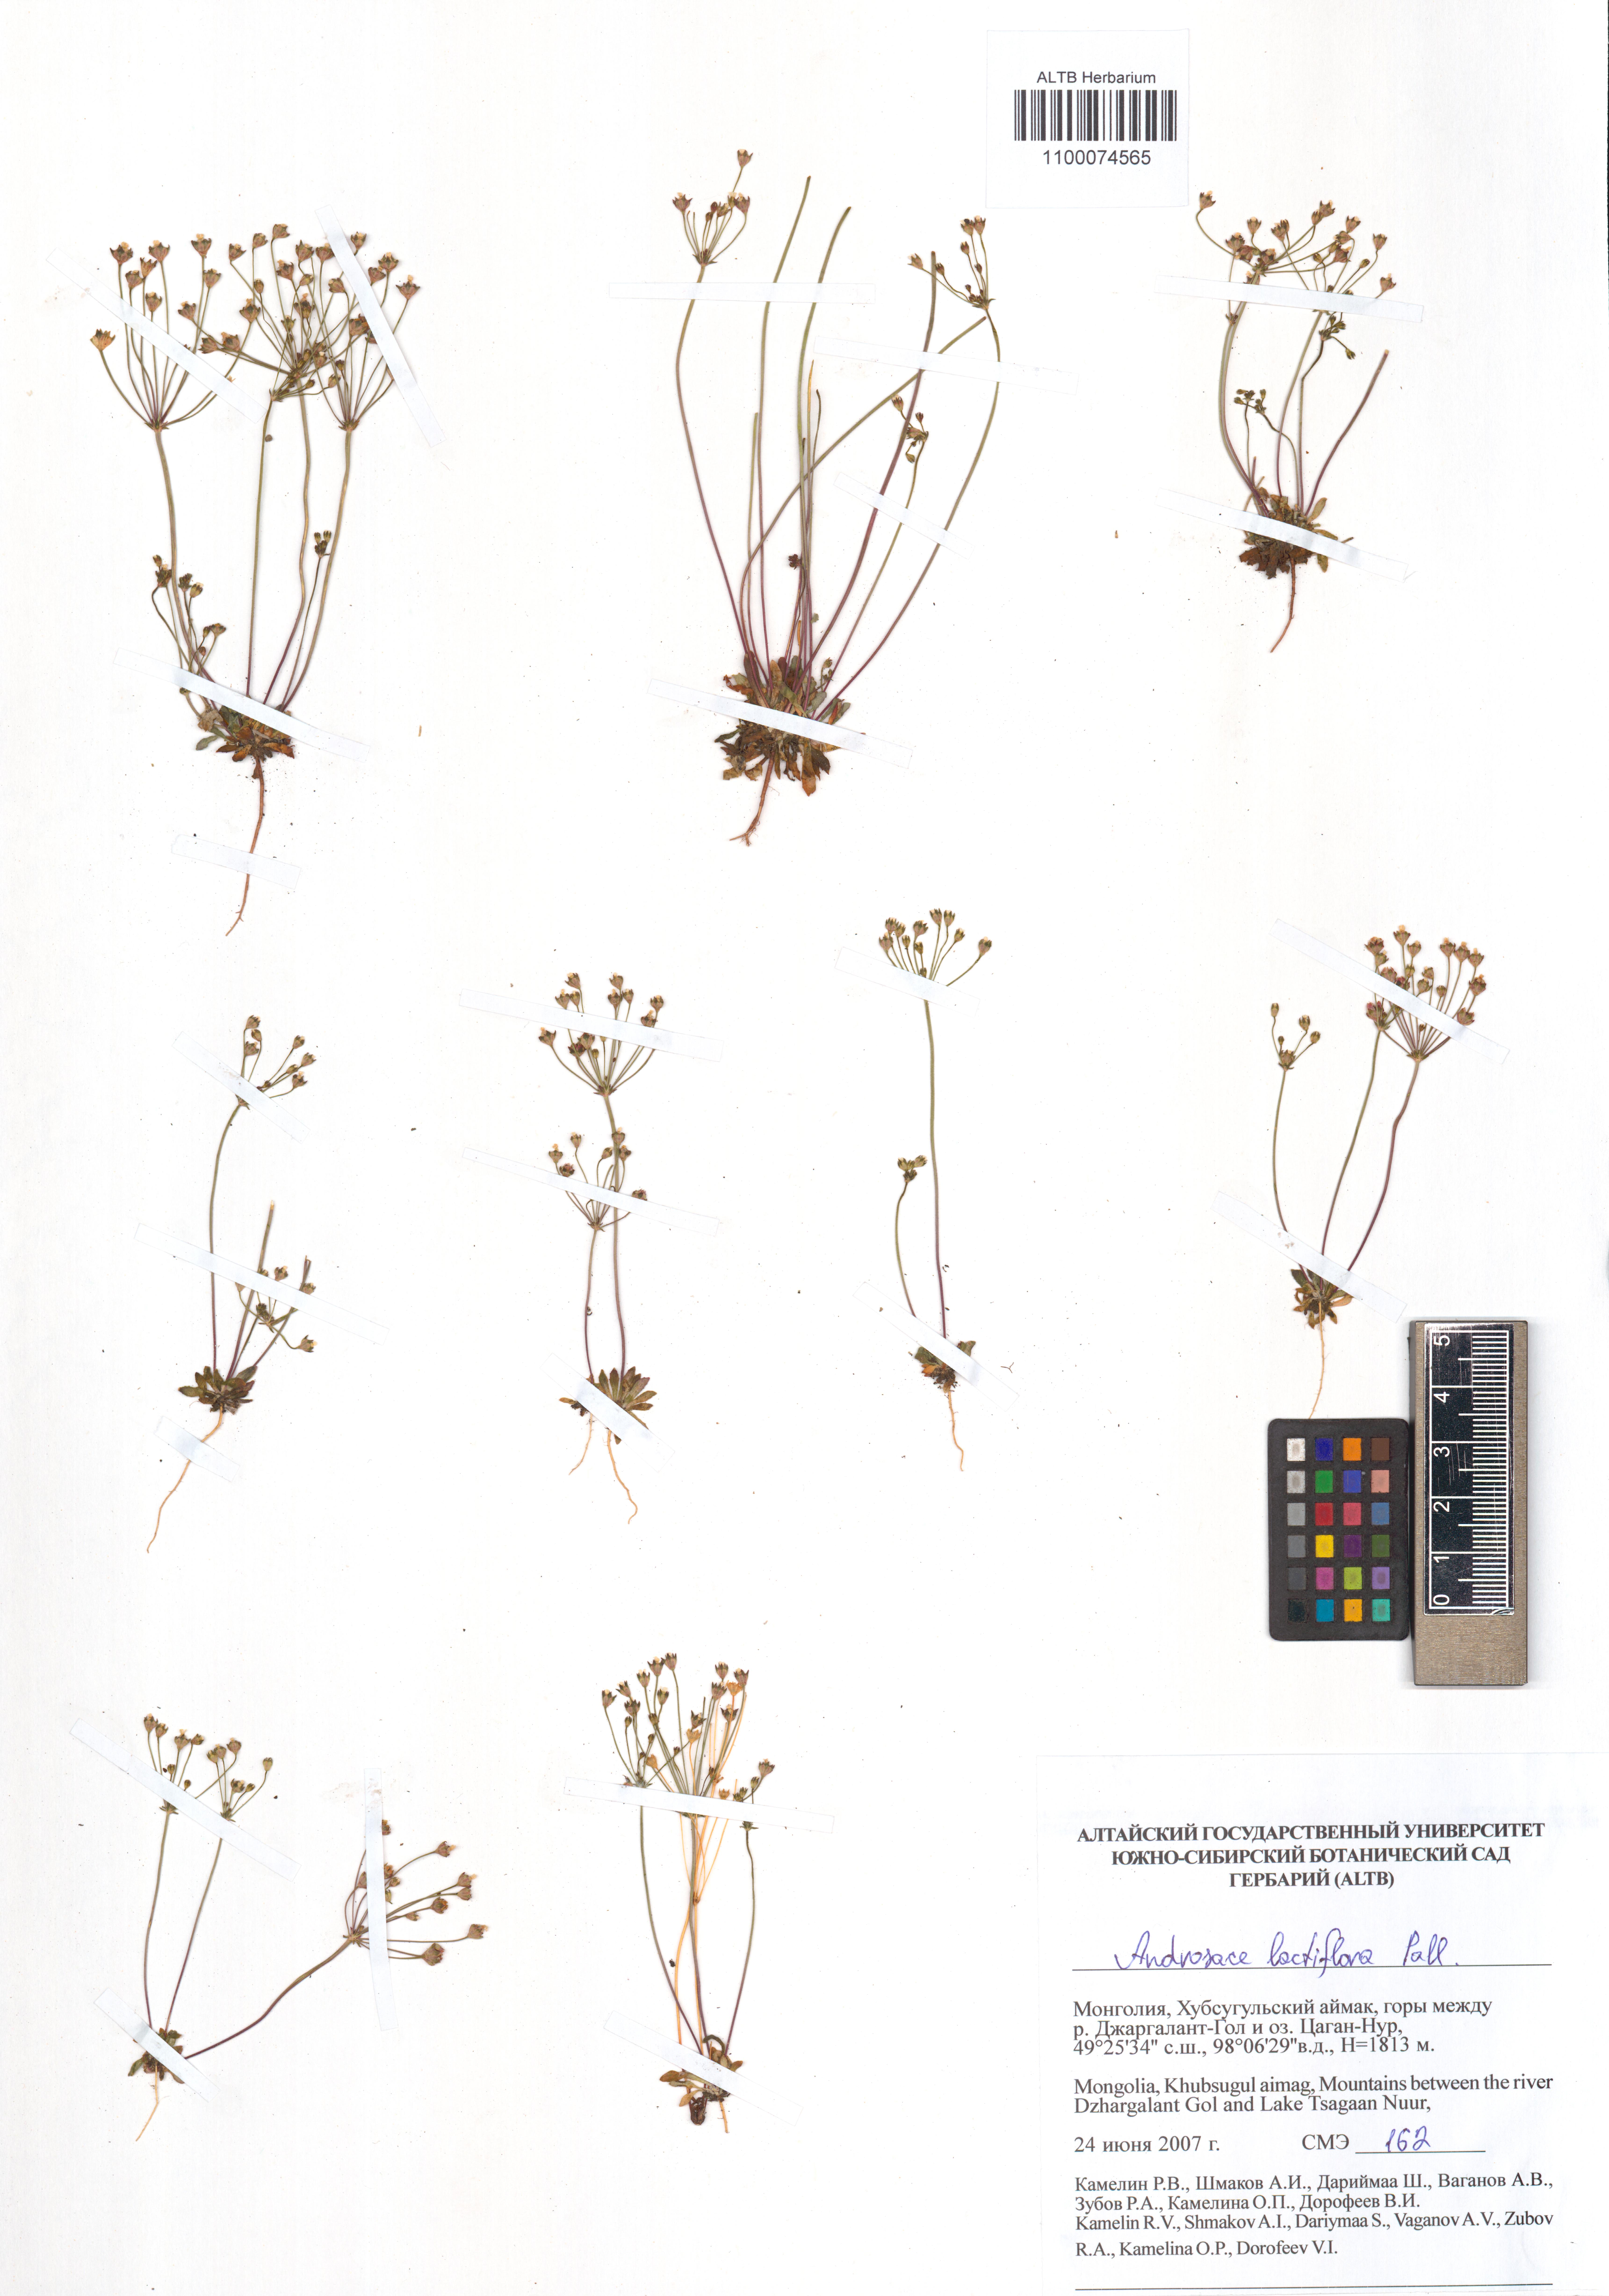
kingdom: Plantae
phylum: Tracheophyta
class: Magnoliopsida
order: Ericales
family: Primulaceae
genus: Androsace
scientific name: Androsace lactiflora
